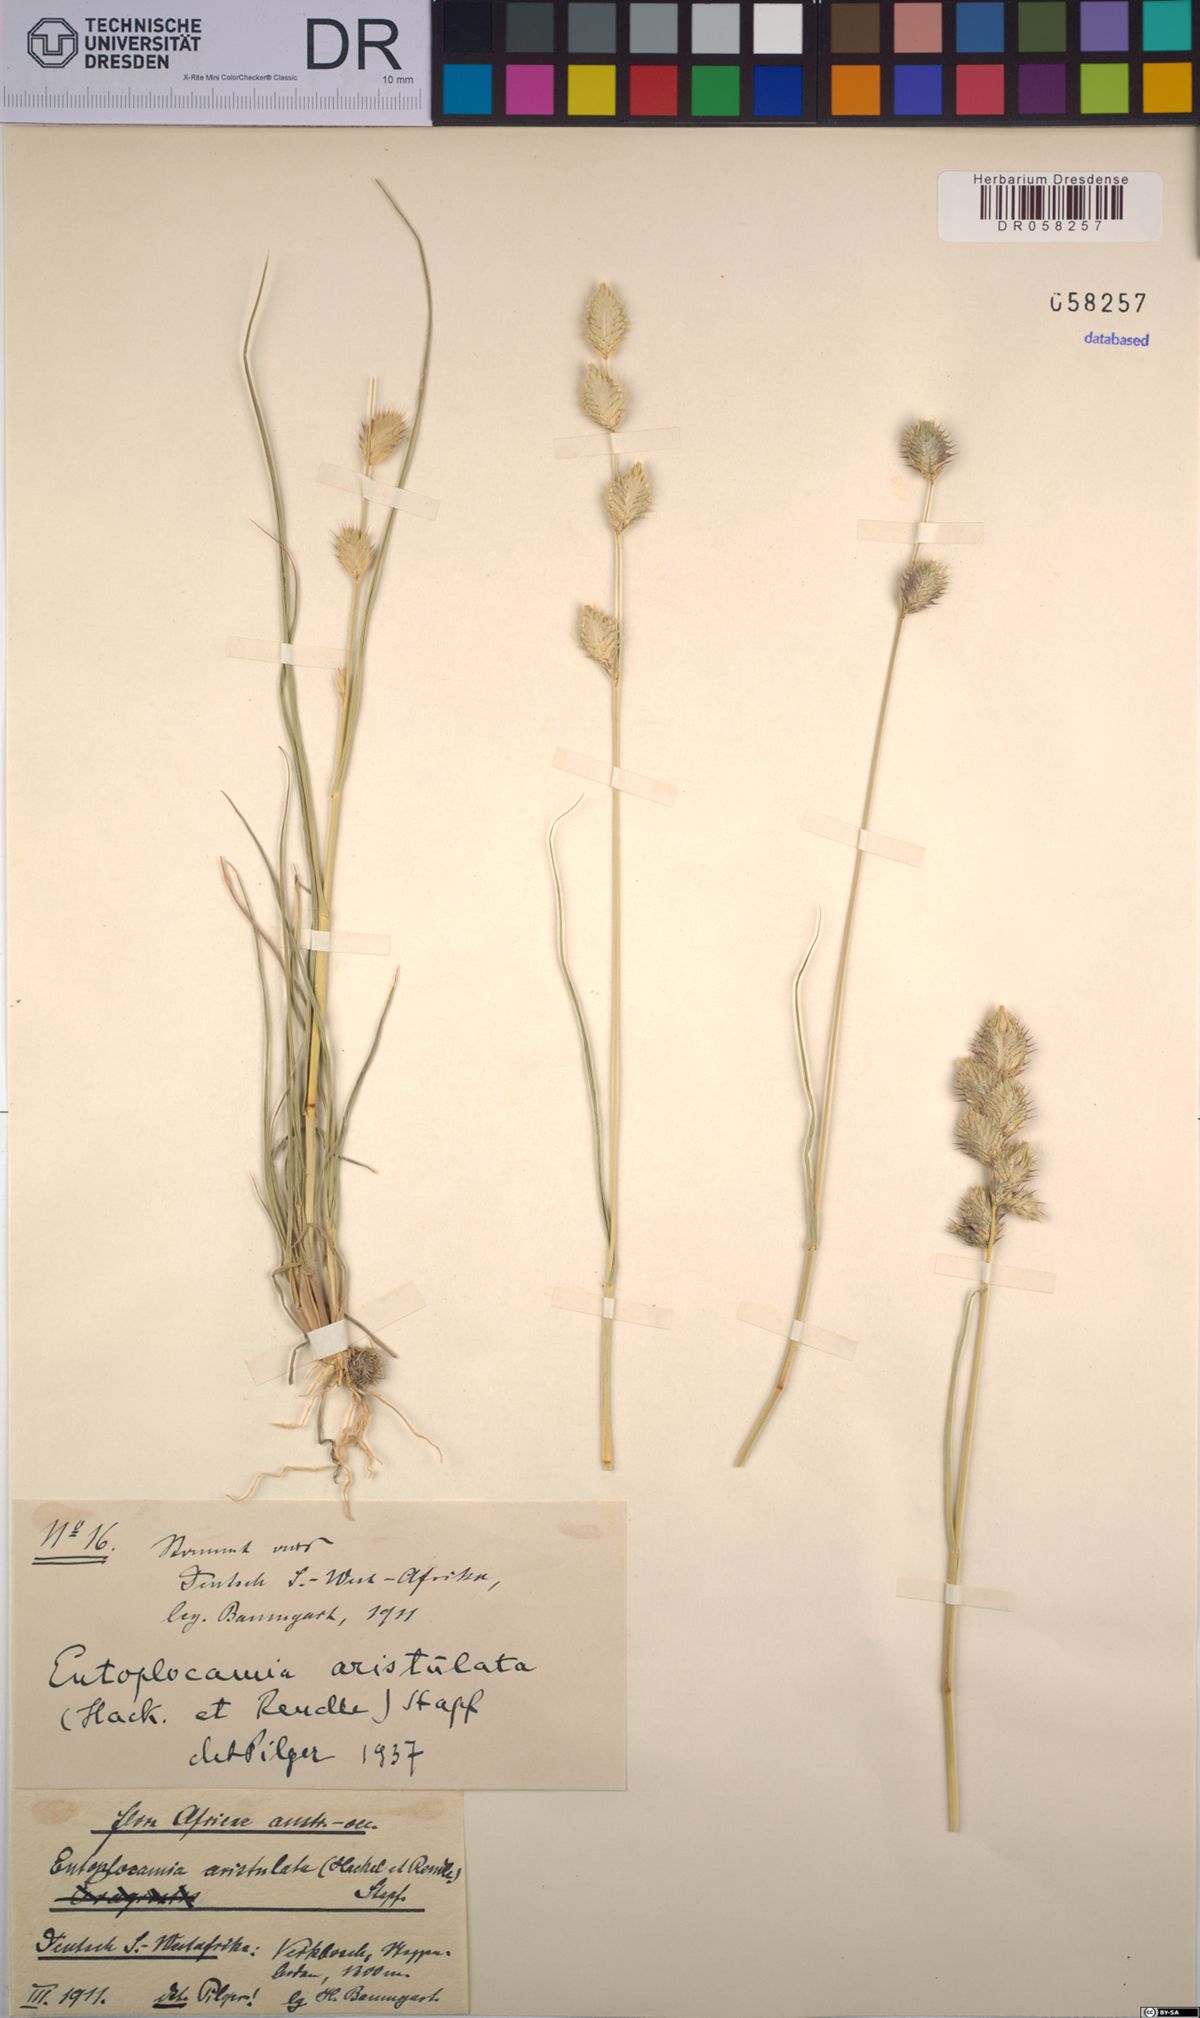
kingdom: Plantae
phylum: Tracheophyta
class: Liliopsida
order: Poales
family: Poaceae
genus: Entoplocamia
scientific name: Entoplocamia aristulata
